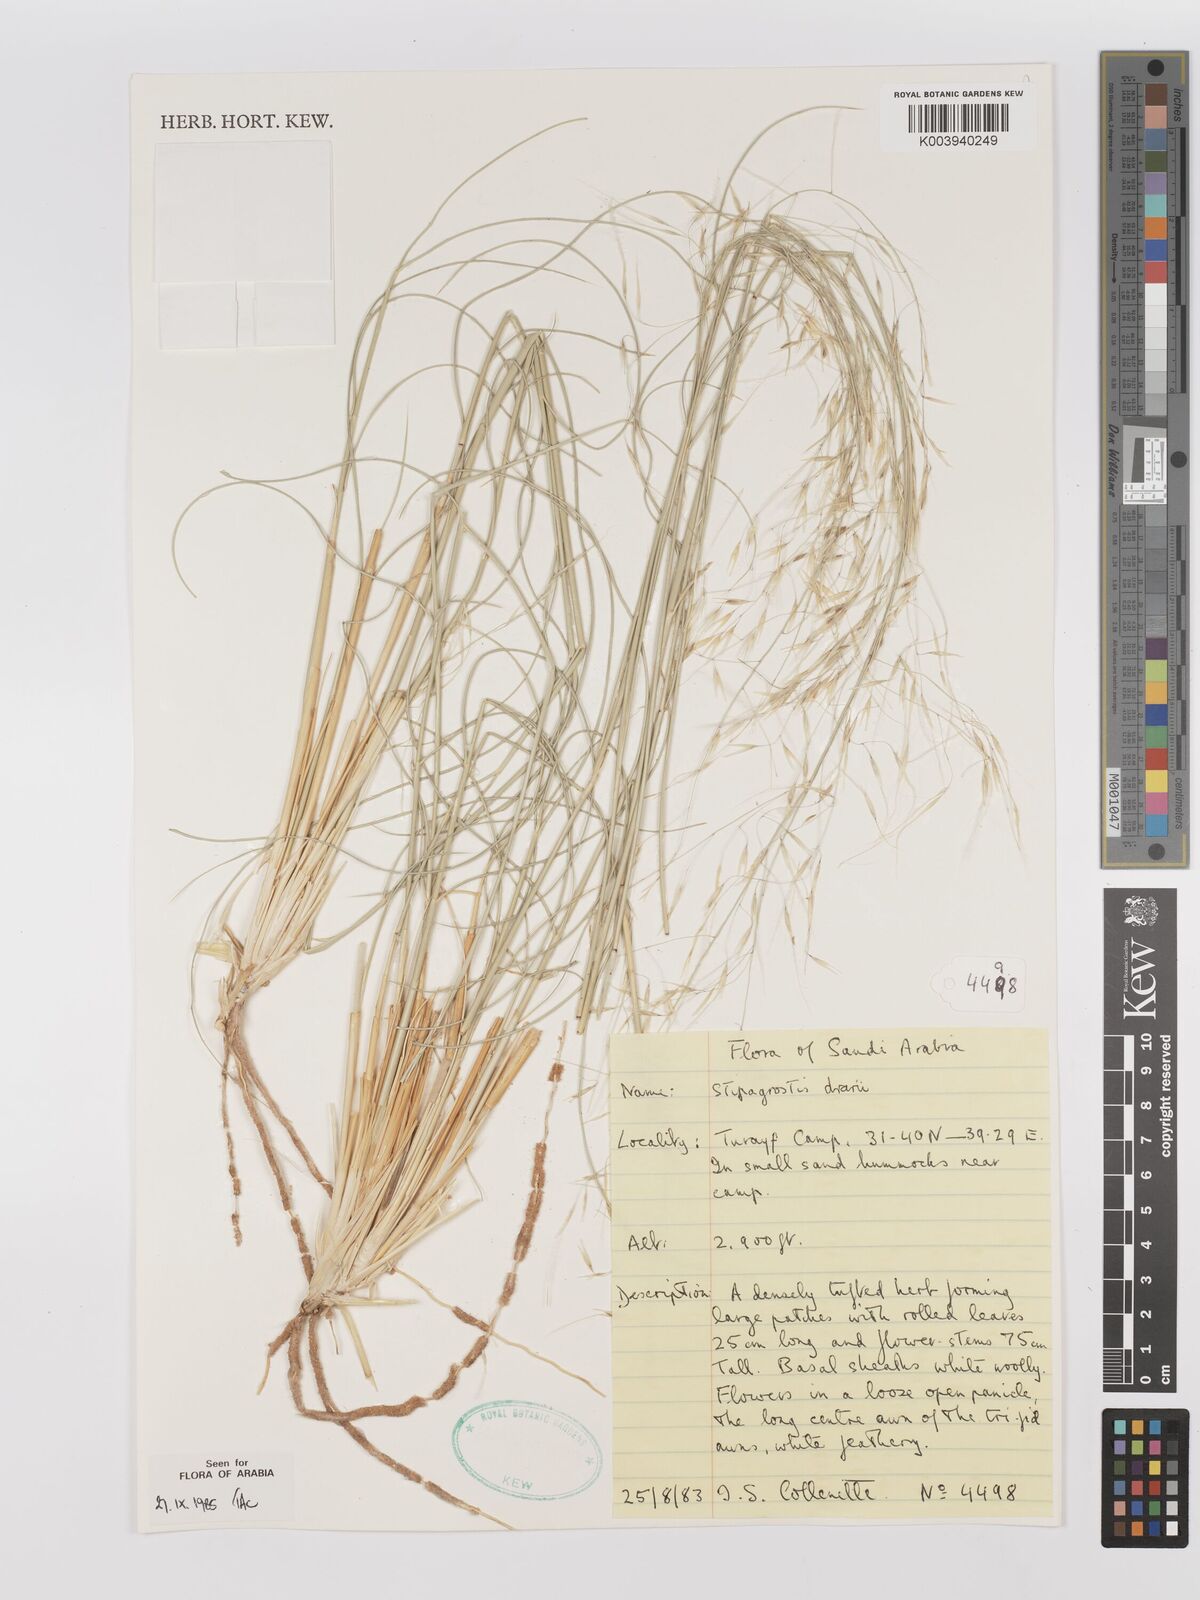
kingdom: Plantae
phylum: Tracheophyta
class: Liliopsida
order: Poales
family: Poaceae
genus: Stipagrostis
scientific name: Stipagrostis drarii
